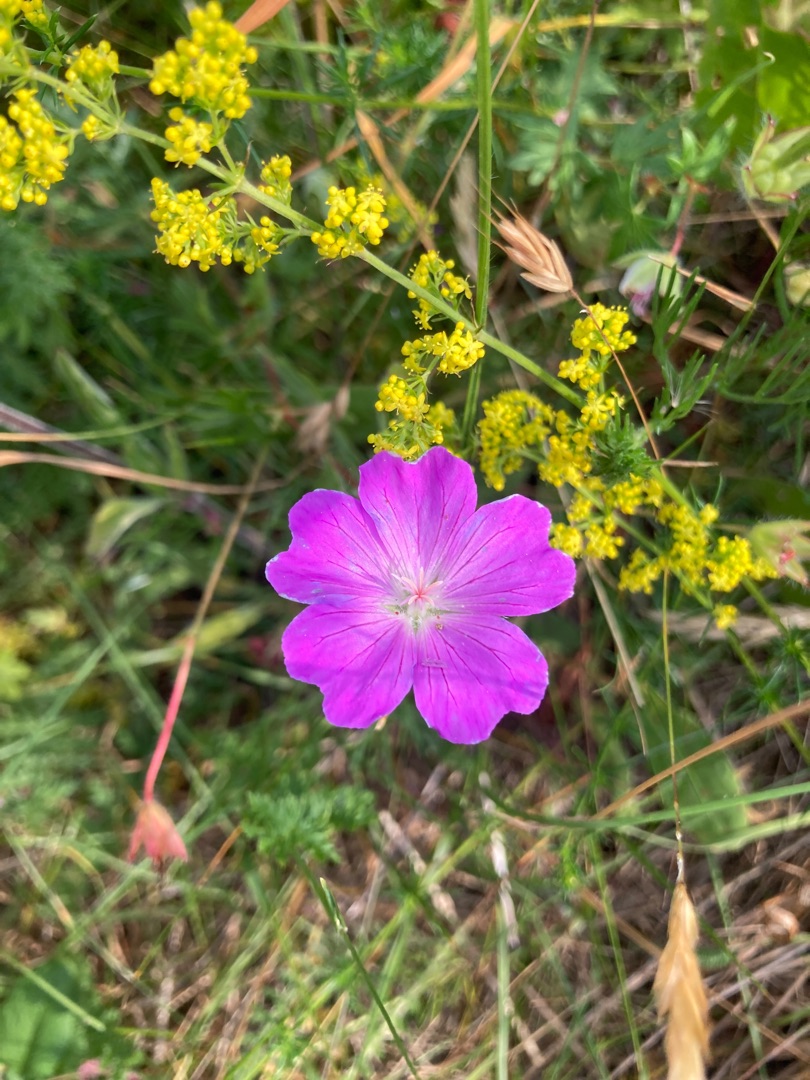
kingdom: Plantae
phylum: Tracheophyta
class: Magnoliopsida
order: Geraniales
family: Geraniaceae
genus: Geranium
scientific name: Geranium sanguineum
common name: Blodrød storkenæb
